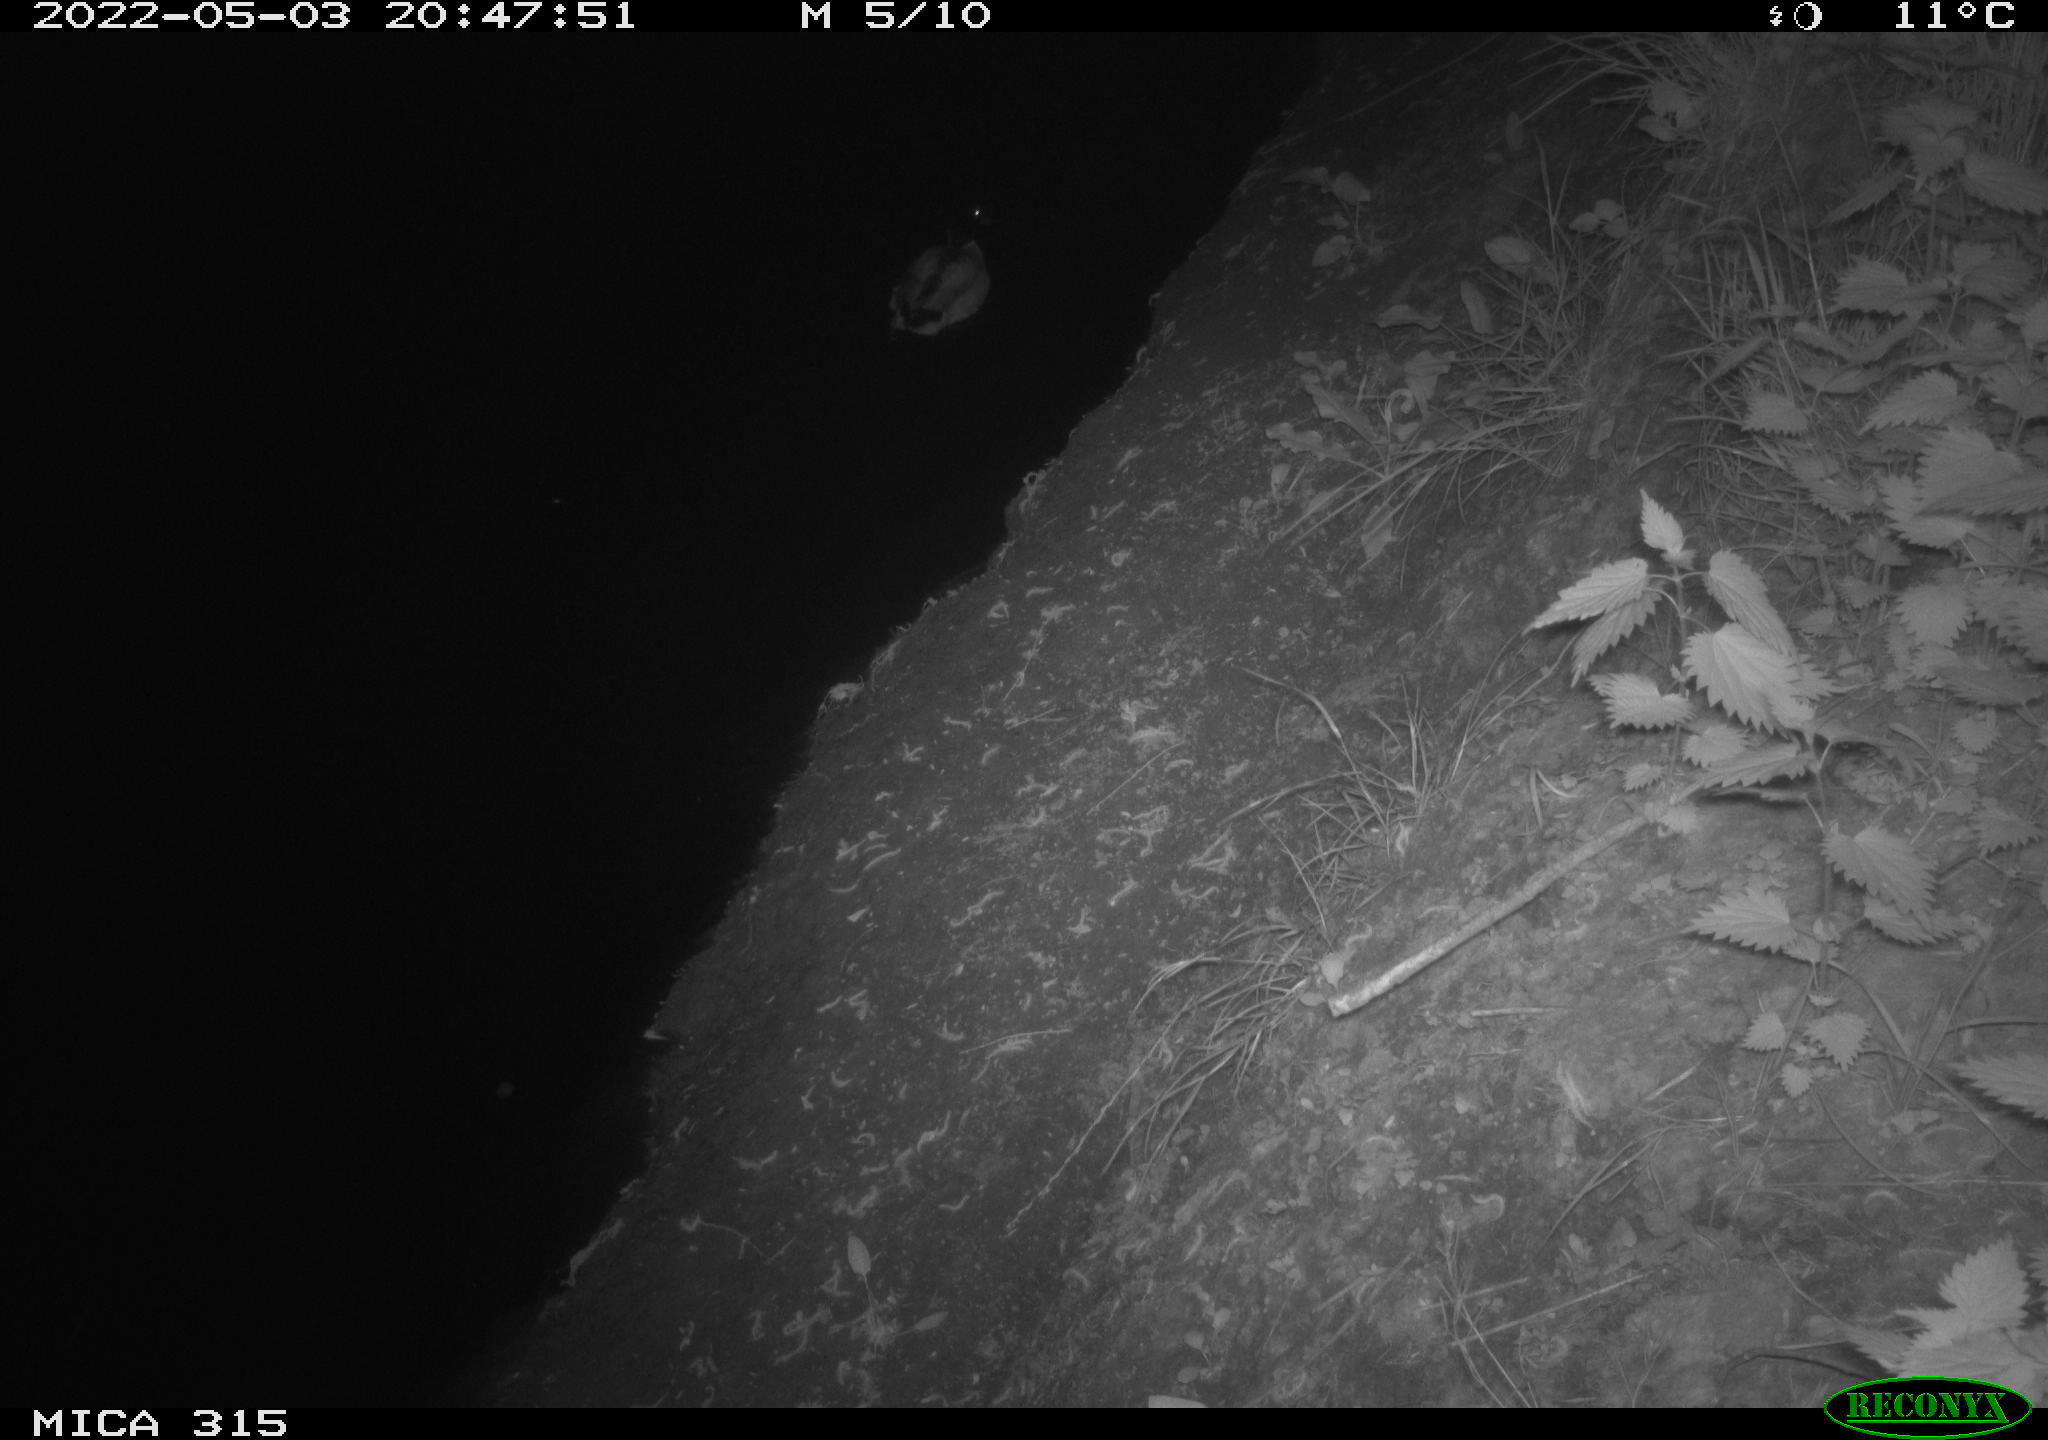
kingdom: Animalia
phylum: Chordata
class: Aves
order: Anseriformes
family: Anatidae
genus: Anas
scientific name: Anas platyrhynchos
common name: Mallard
